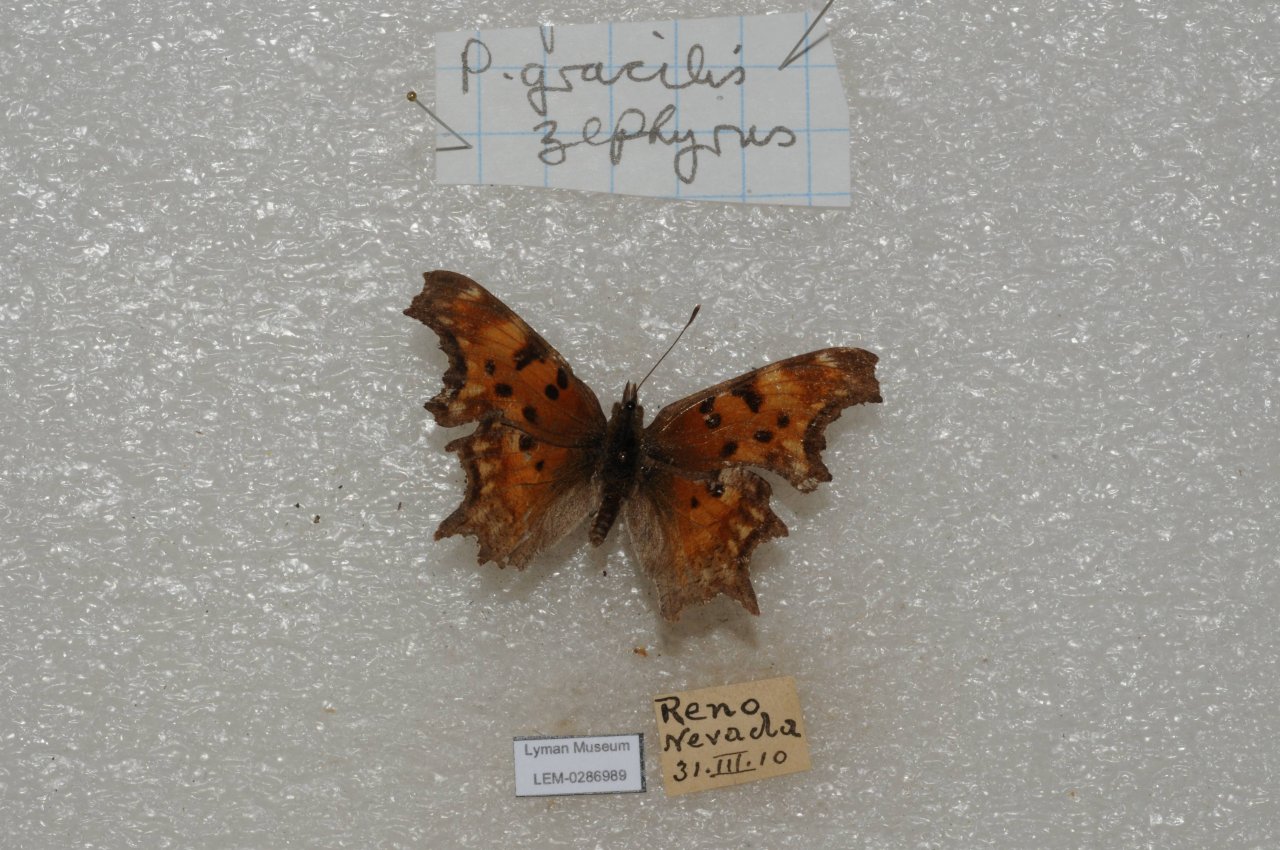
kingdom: Animalia
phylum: Arthropoda
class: Insecta
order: Lepidoptera
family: Nymphalidae
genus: Polygonia
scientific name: Polygonia gracilis
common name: Hoary Comma
